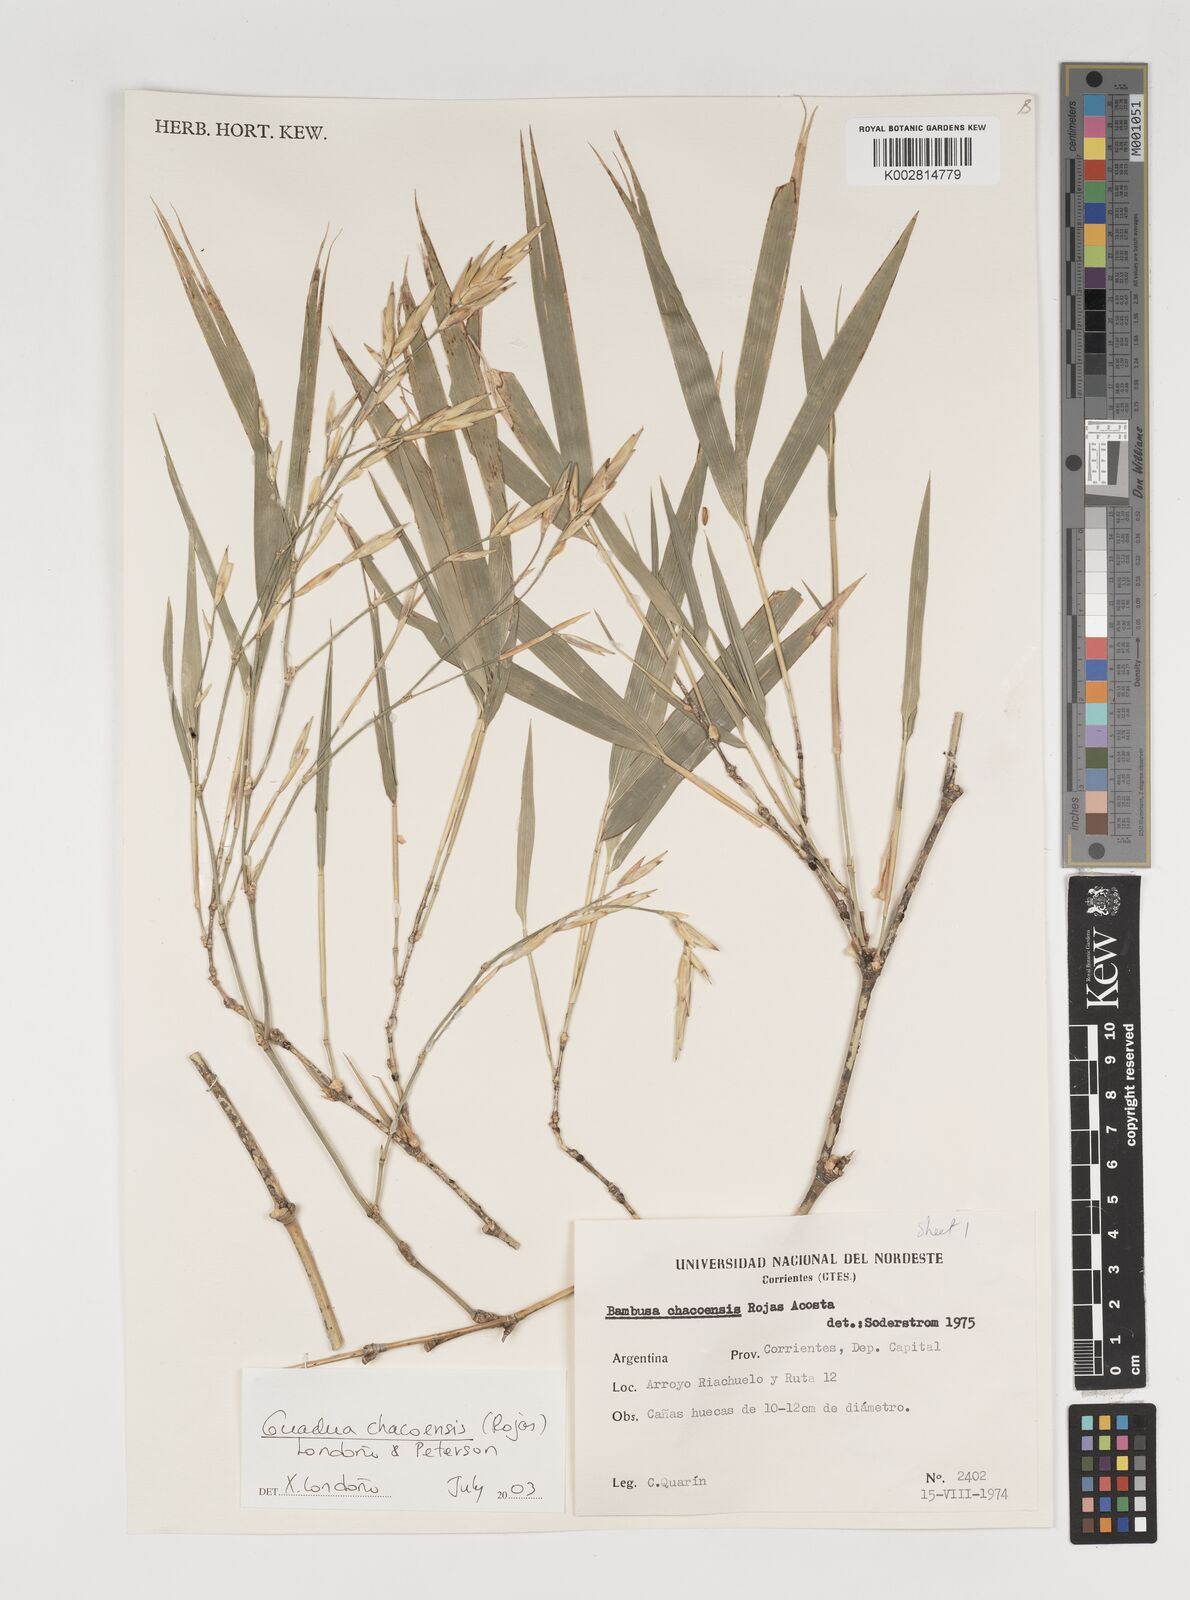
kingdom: Plantae
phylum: Tracheophyta
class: Liliopsida
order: Poales
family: Poaceae
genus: Guadua
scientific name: Guadua chacoensis
